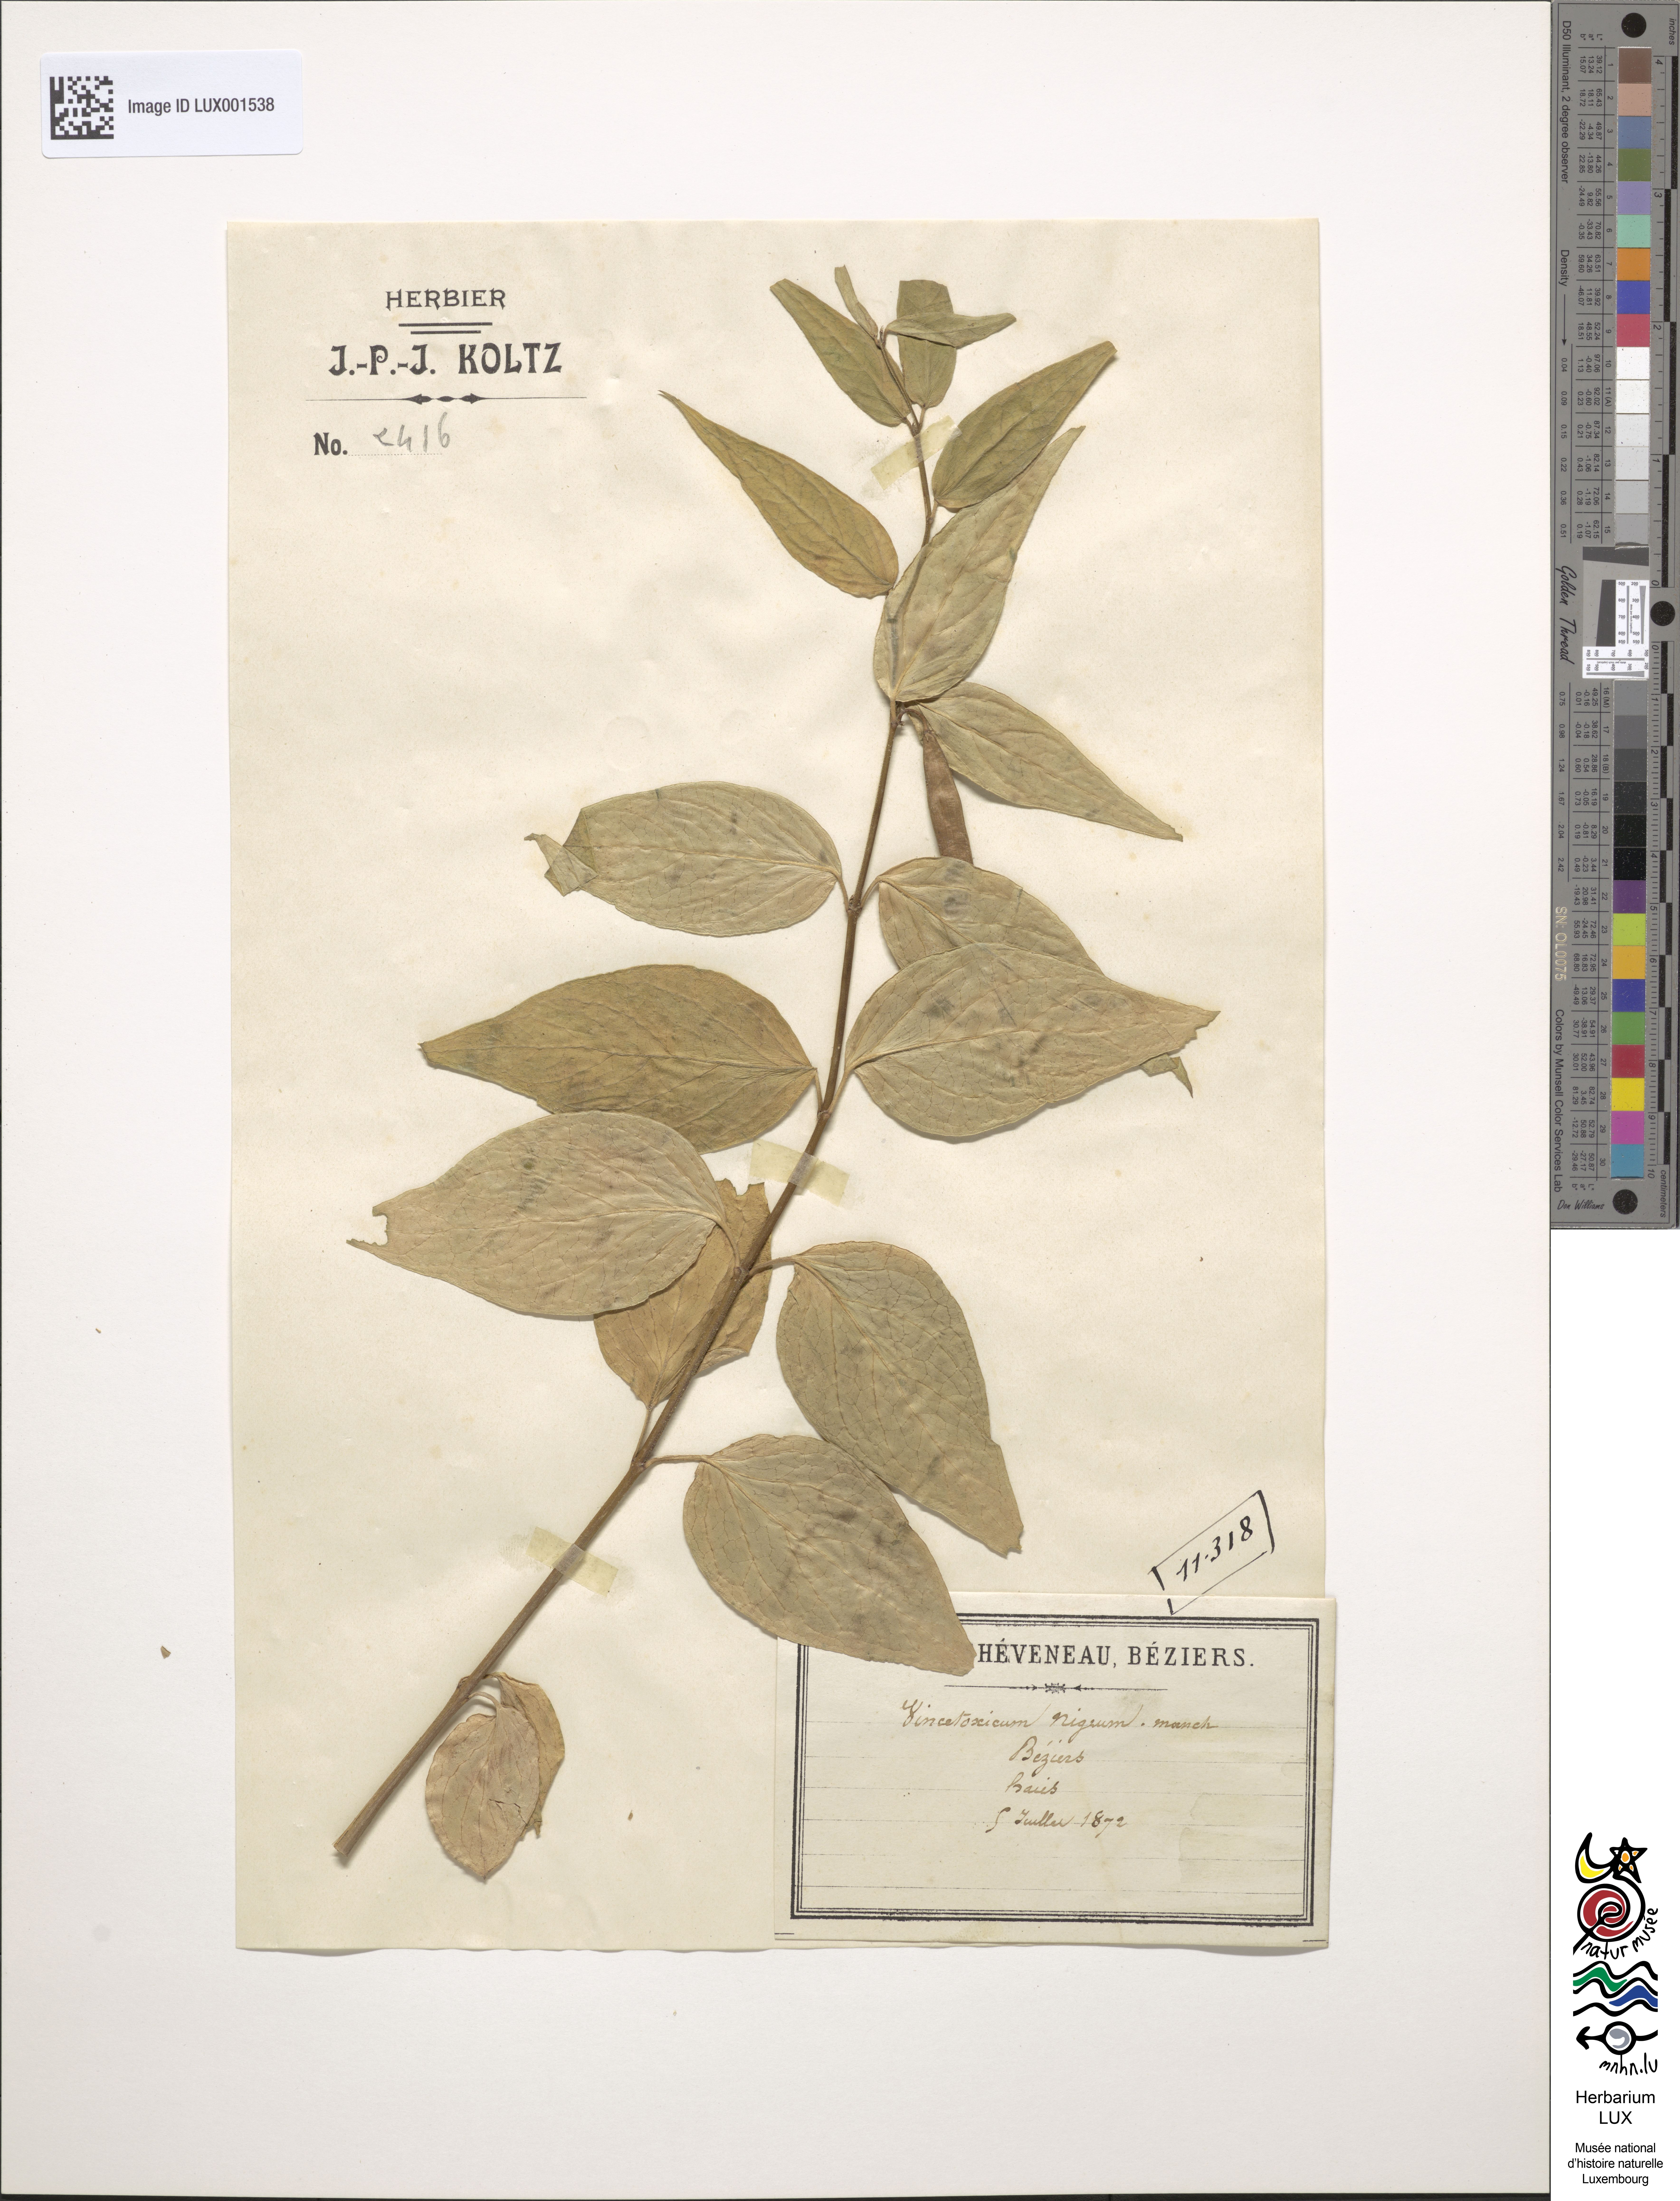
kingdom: Plantae
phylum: Tracheophyta
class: Magnoliopsida
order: Gentianales
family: Apocynaceae
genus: Vincetoxicum
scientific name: Vincetoxicum nigrum
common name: Black swallow-wort
